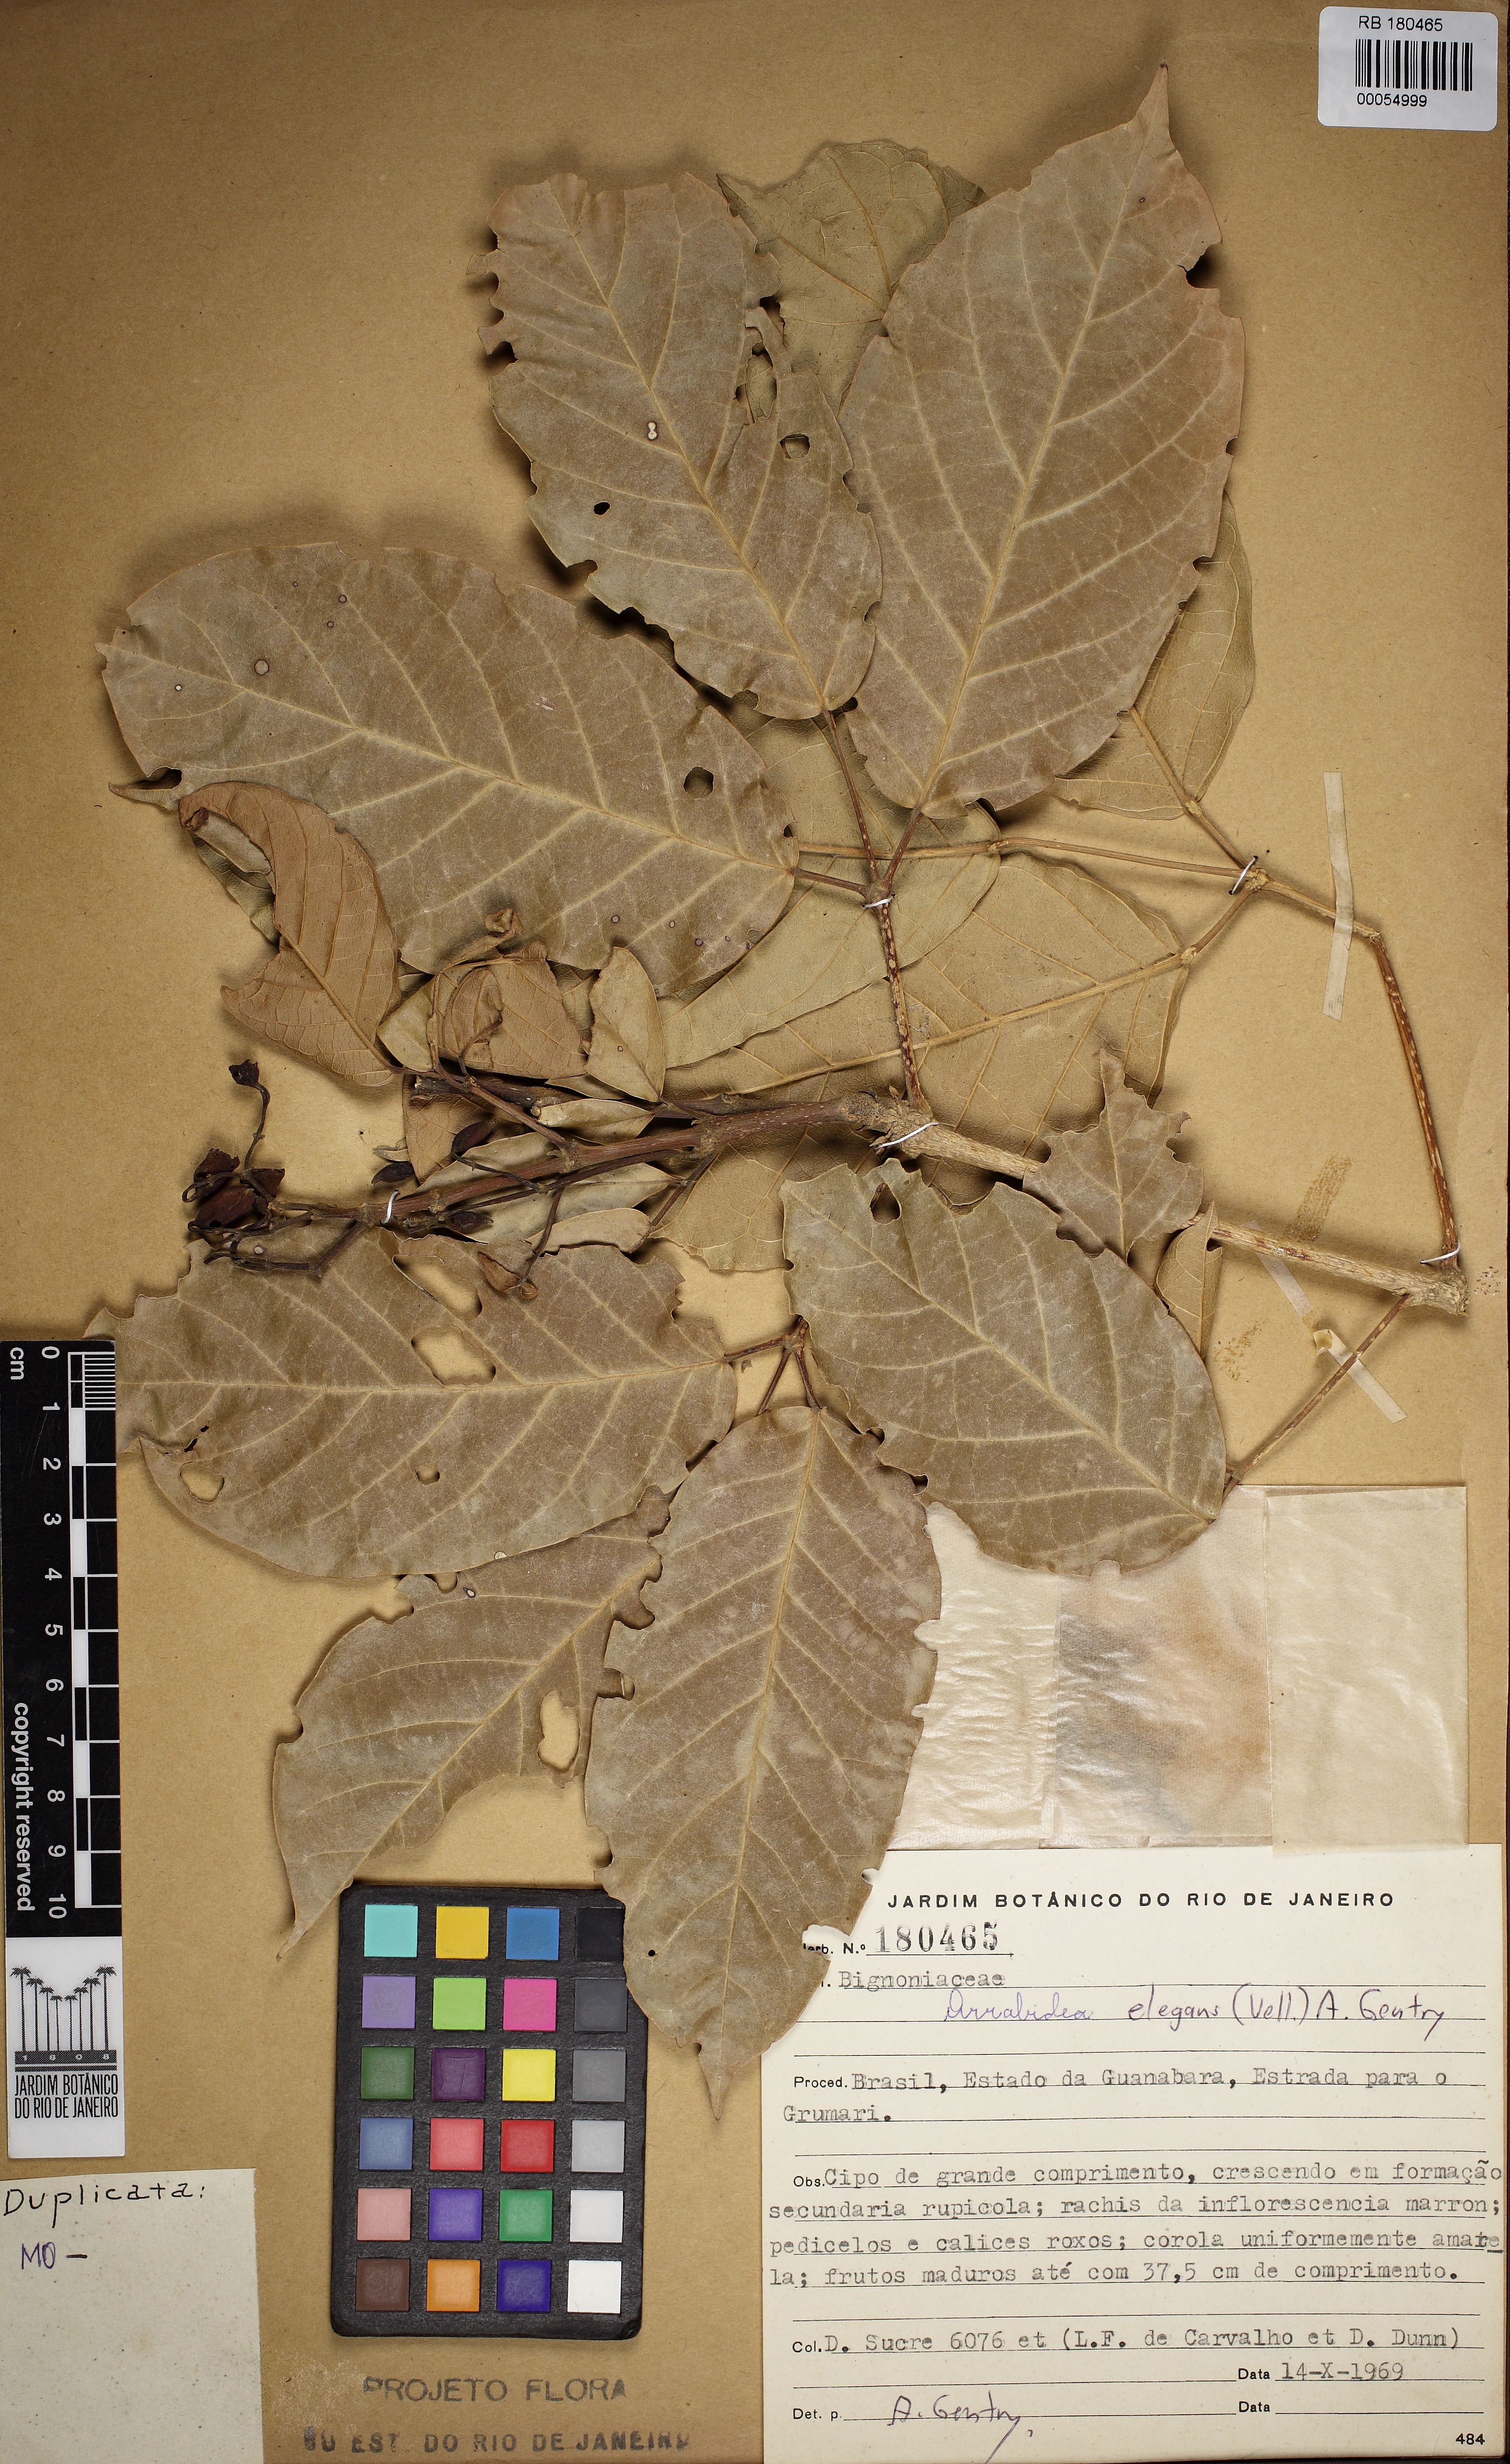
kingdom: Plantae
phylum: Tracheophyta
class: Magnoliopsida
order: Lamiales
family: Bignoniaceae
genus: Fridericia
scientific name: Fridericia elegans
